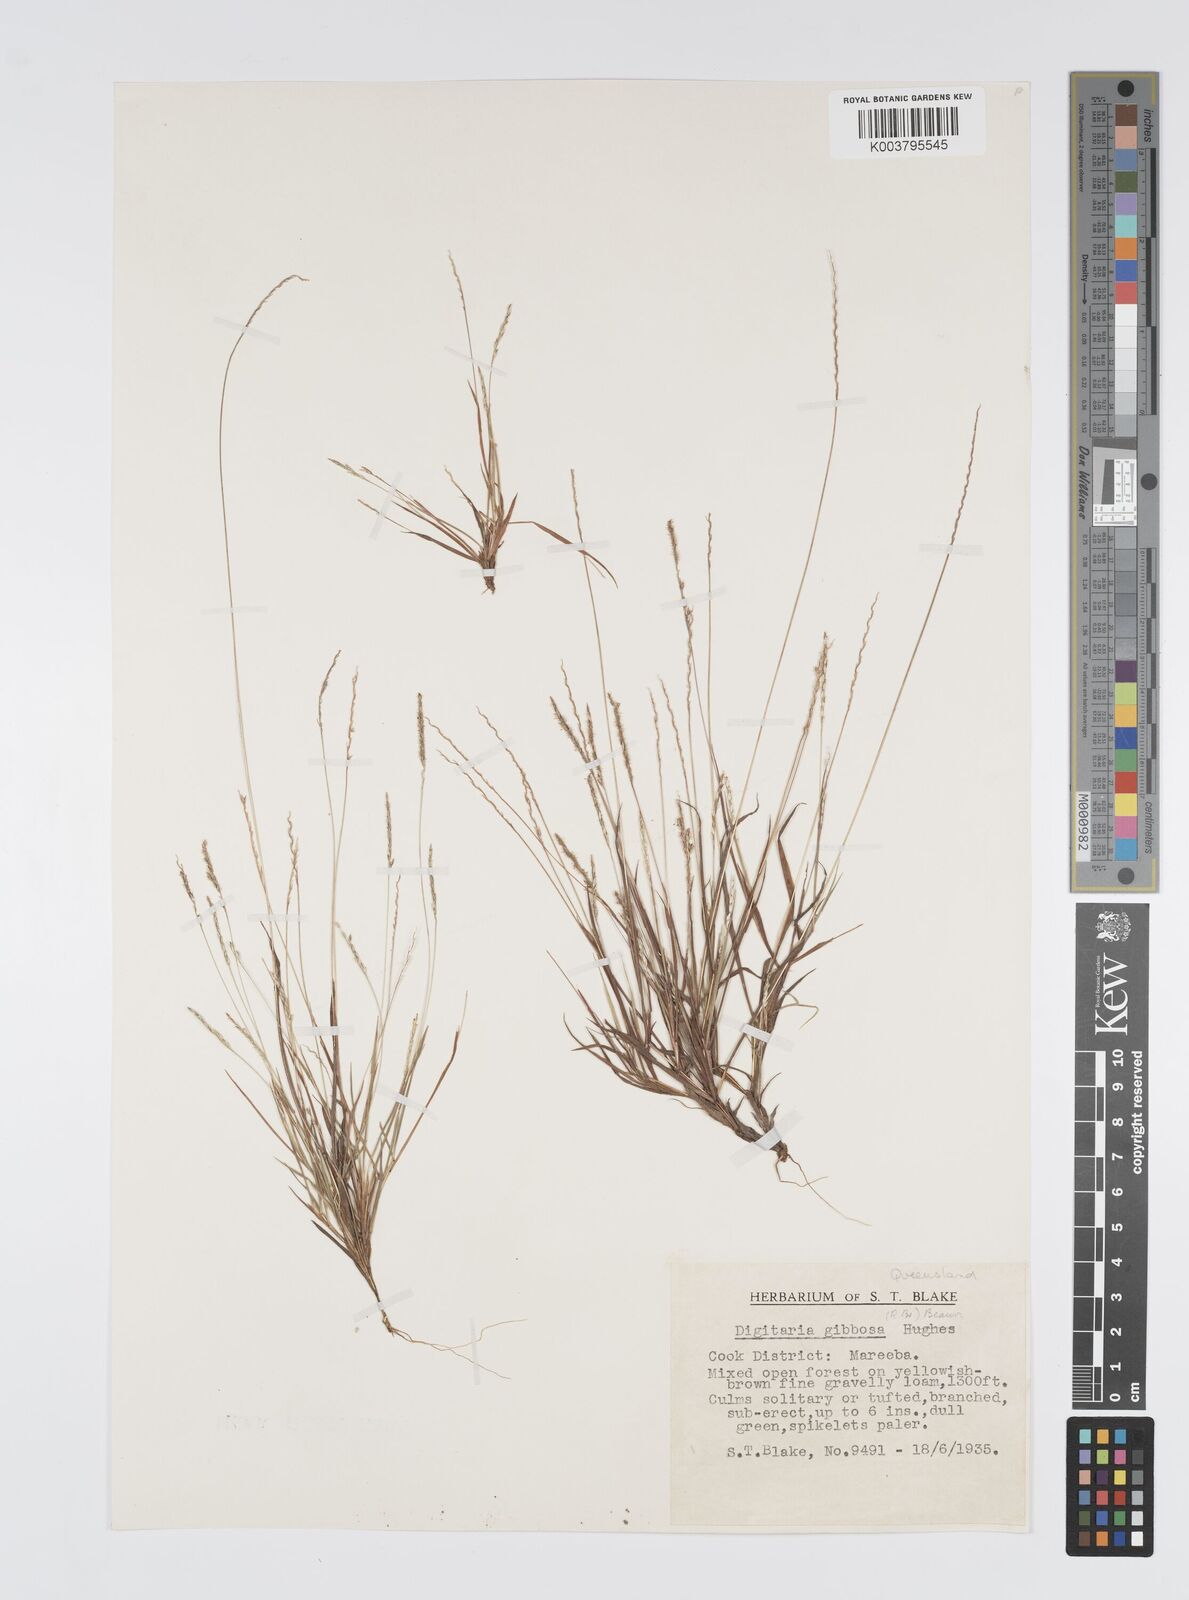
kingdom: Plantae
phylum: Tracheophyta
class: Liliopsida
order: Poales
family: Poaceae
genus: Digitaria
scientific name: Digitaria gibbosa
